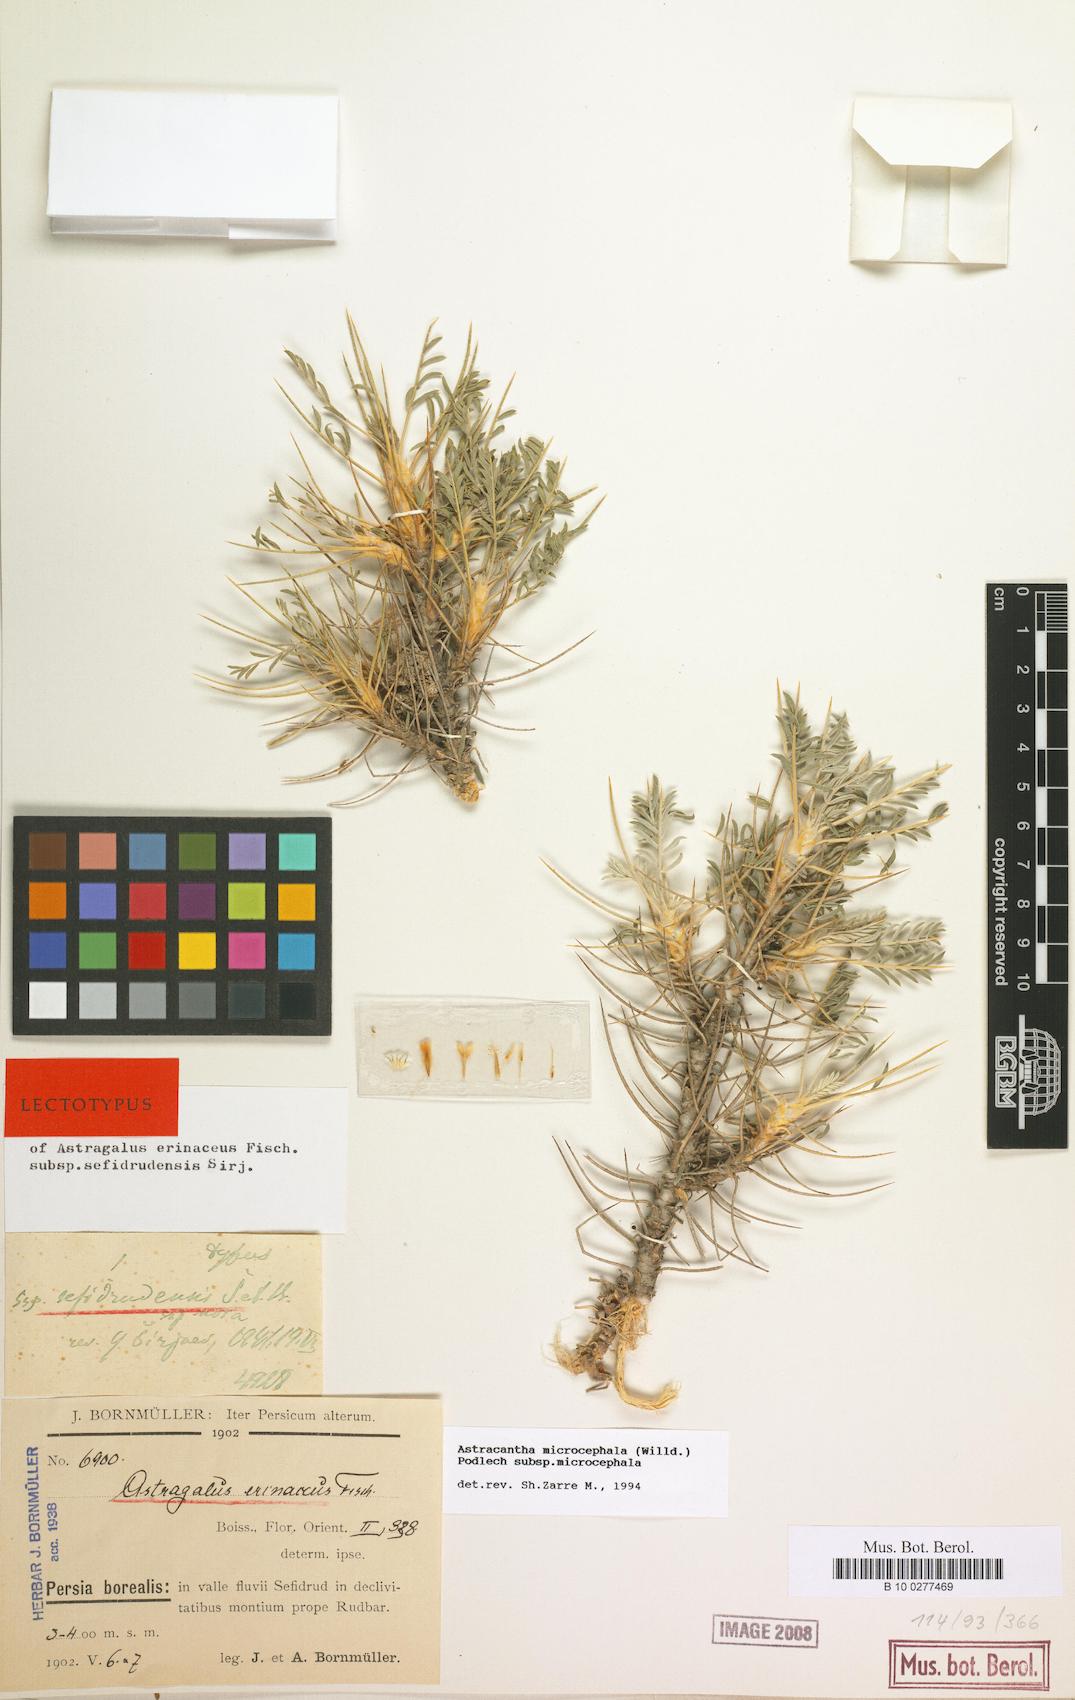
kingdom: Plantae
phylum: Tracheophyta
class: Magnoliopsida
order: Fabales
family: Fabaceae
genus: Astragalus
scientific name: Astragalus microcephalus
